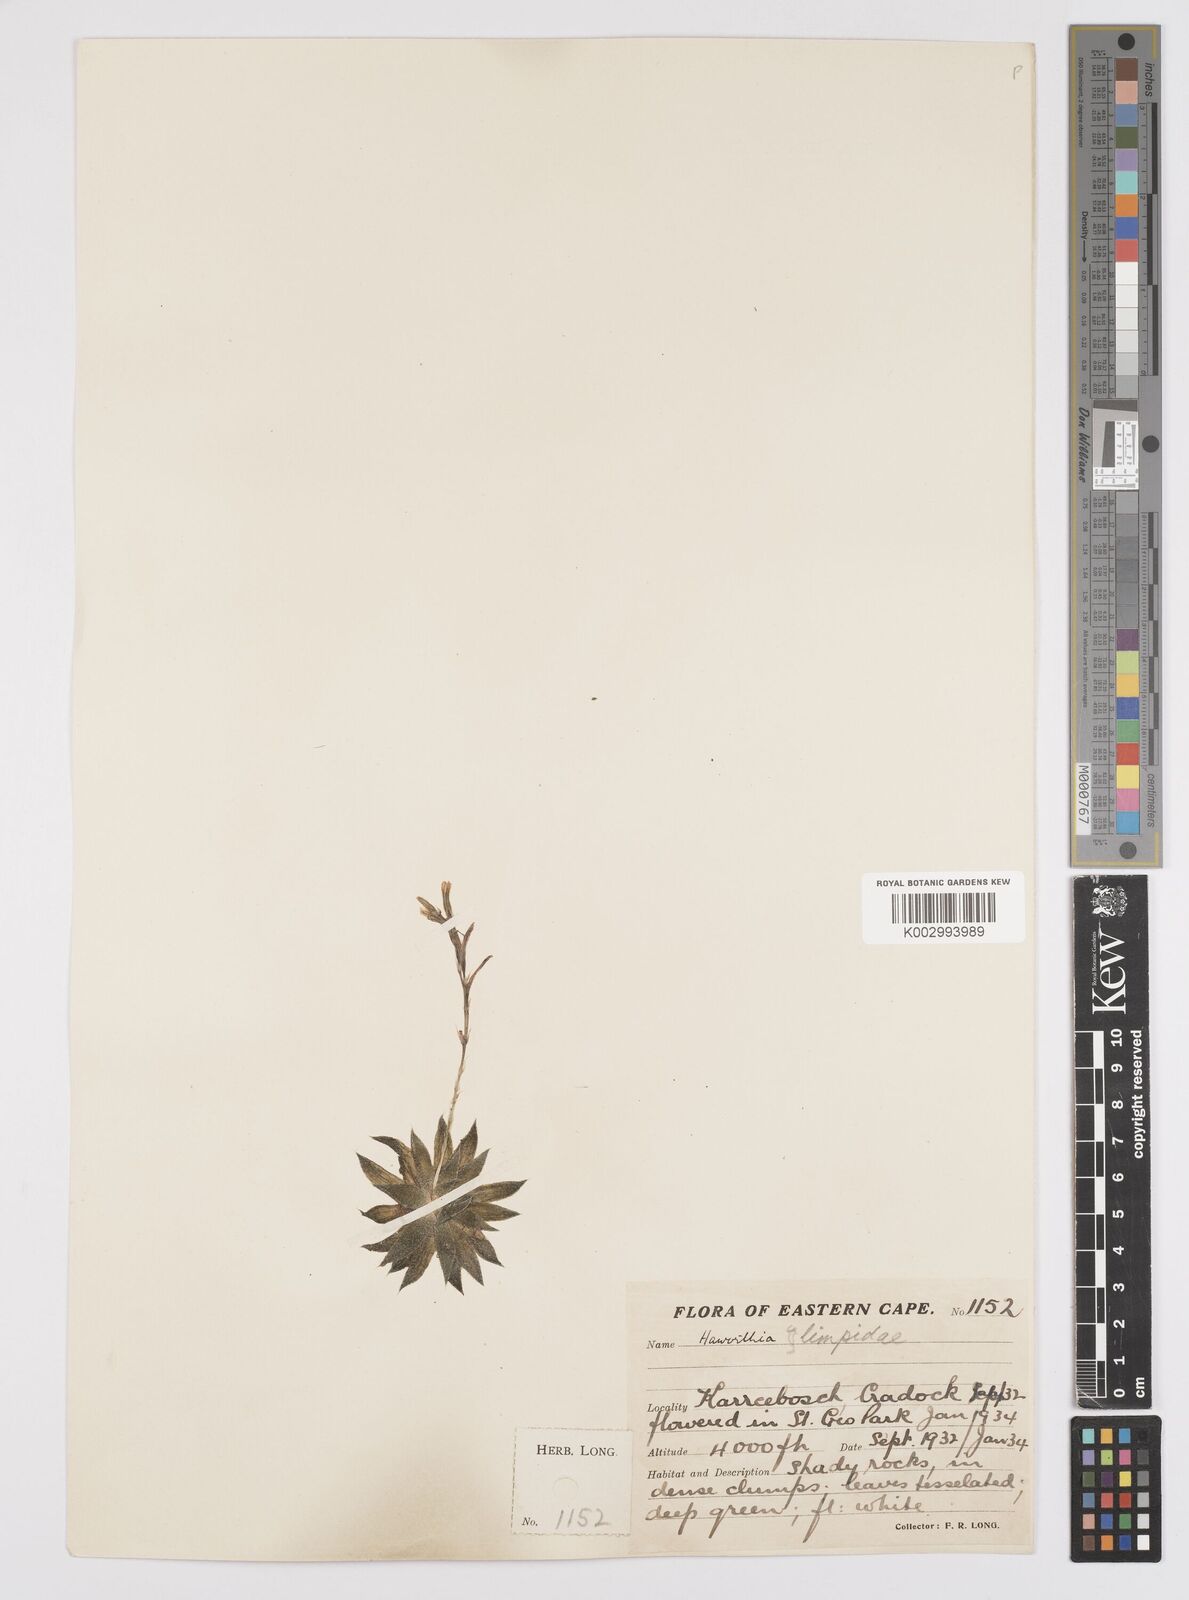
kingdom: Plantae
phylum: Tracheophyta
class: Liliopsida
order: Asparagales
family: Asphodelaceae
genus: Haworthia
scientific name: Haworthia
